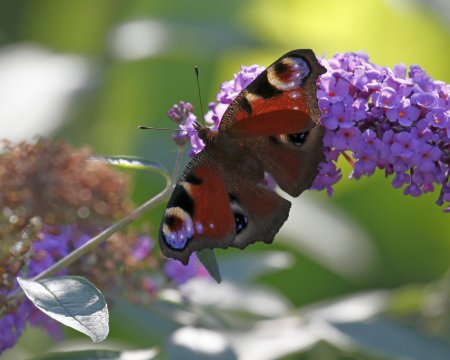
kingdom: Animalia
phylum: Arthropoda
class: Insecta
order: Lepidoptera
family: Nymphalidae
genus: Aglais
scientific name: Aglais io
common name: European Peacock
